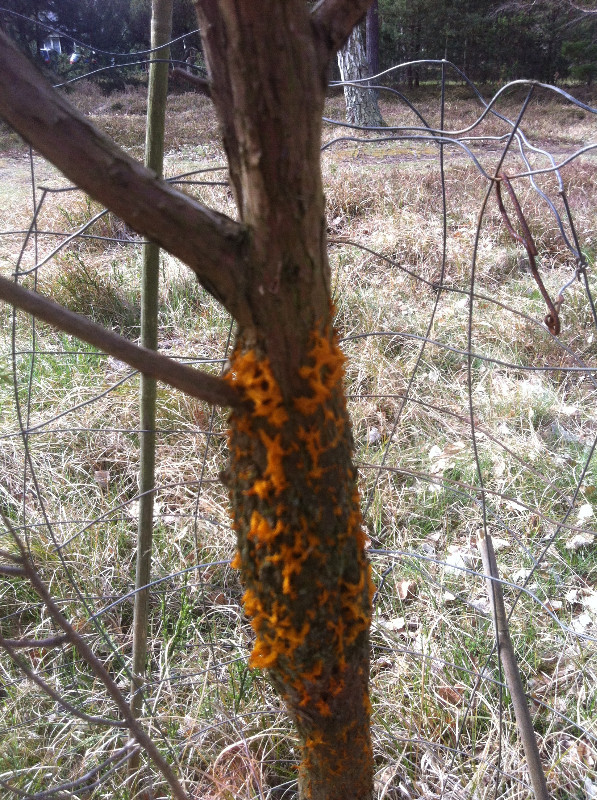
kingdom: Fungi
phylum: Basidiomycota
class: Pucciniomycetes
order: Pucciniales
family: Gymnosporangiaceae
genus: Gymnosporangium
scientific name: Gymnosporangium clavariiforme
